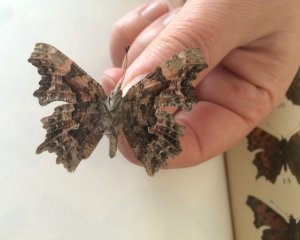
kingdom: Animalia
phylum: Arthropoda
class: Insecta
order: Lepidoptera
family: Nymphalidae
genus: Polygonia
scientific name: Polygonia faunus
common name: Green Comma
